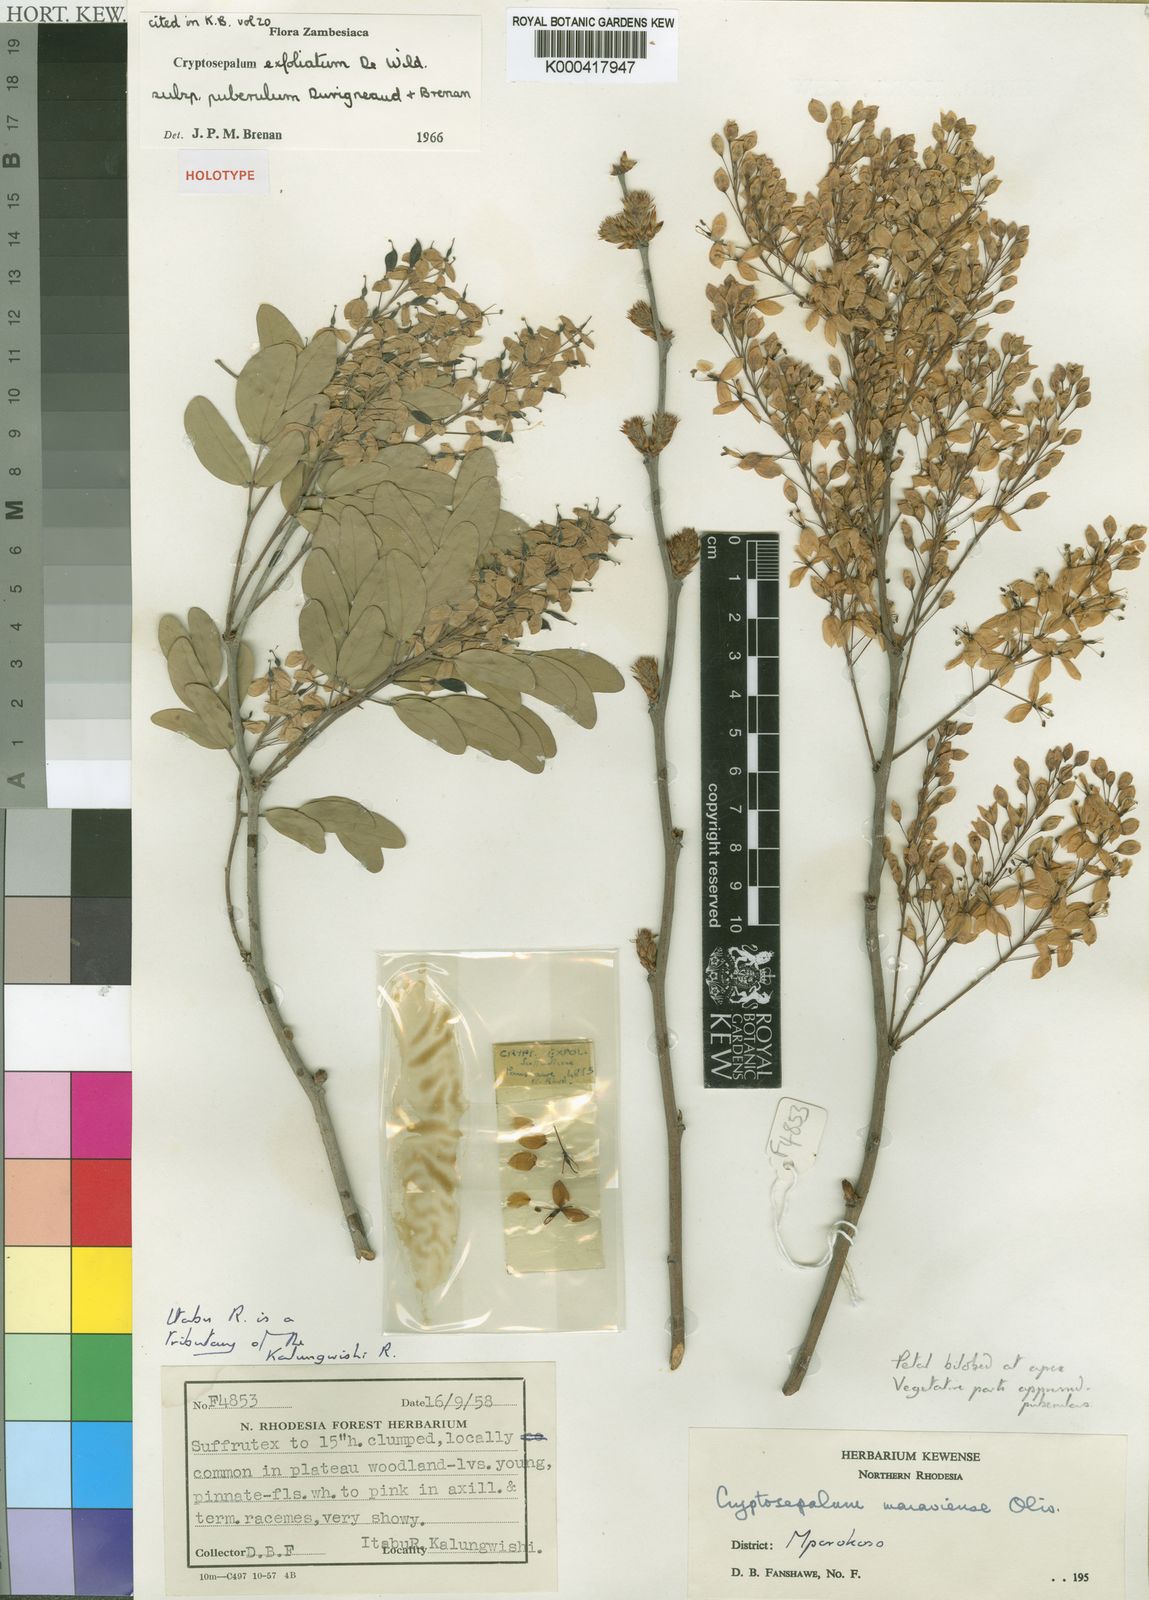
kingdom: Plantae
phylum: Tracheophyta
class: Magnoliopsida
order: Fabales
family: Fabaceae
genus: Cryptosepalum
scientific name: Cryptosepalum exfoliatum
